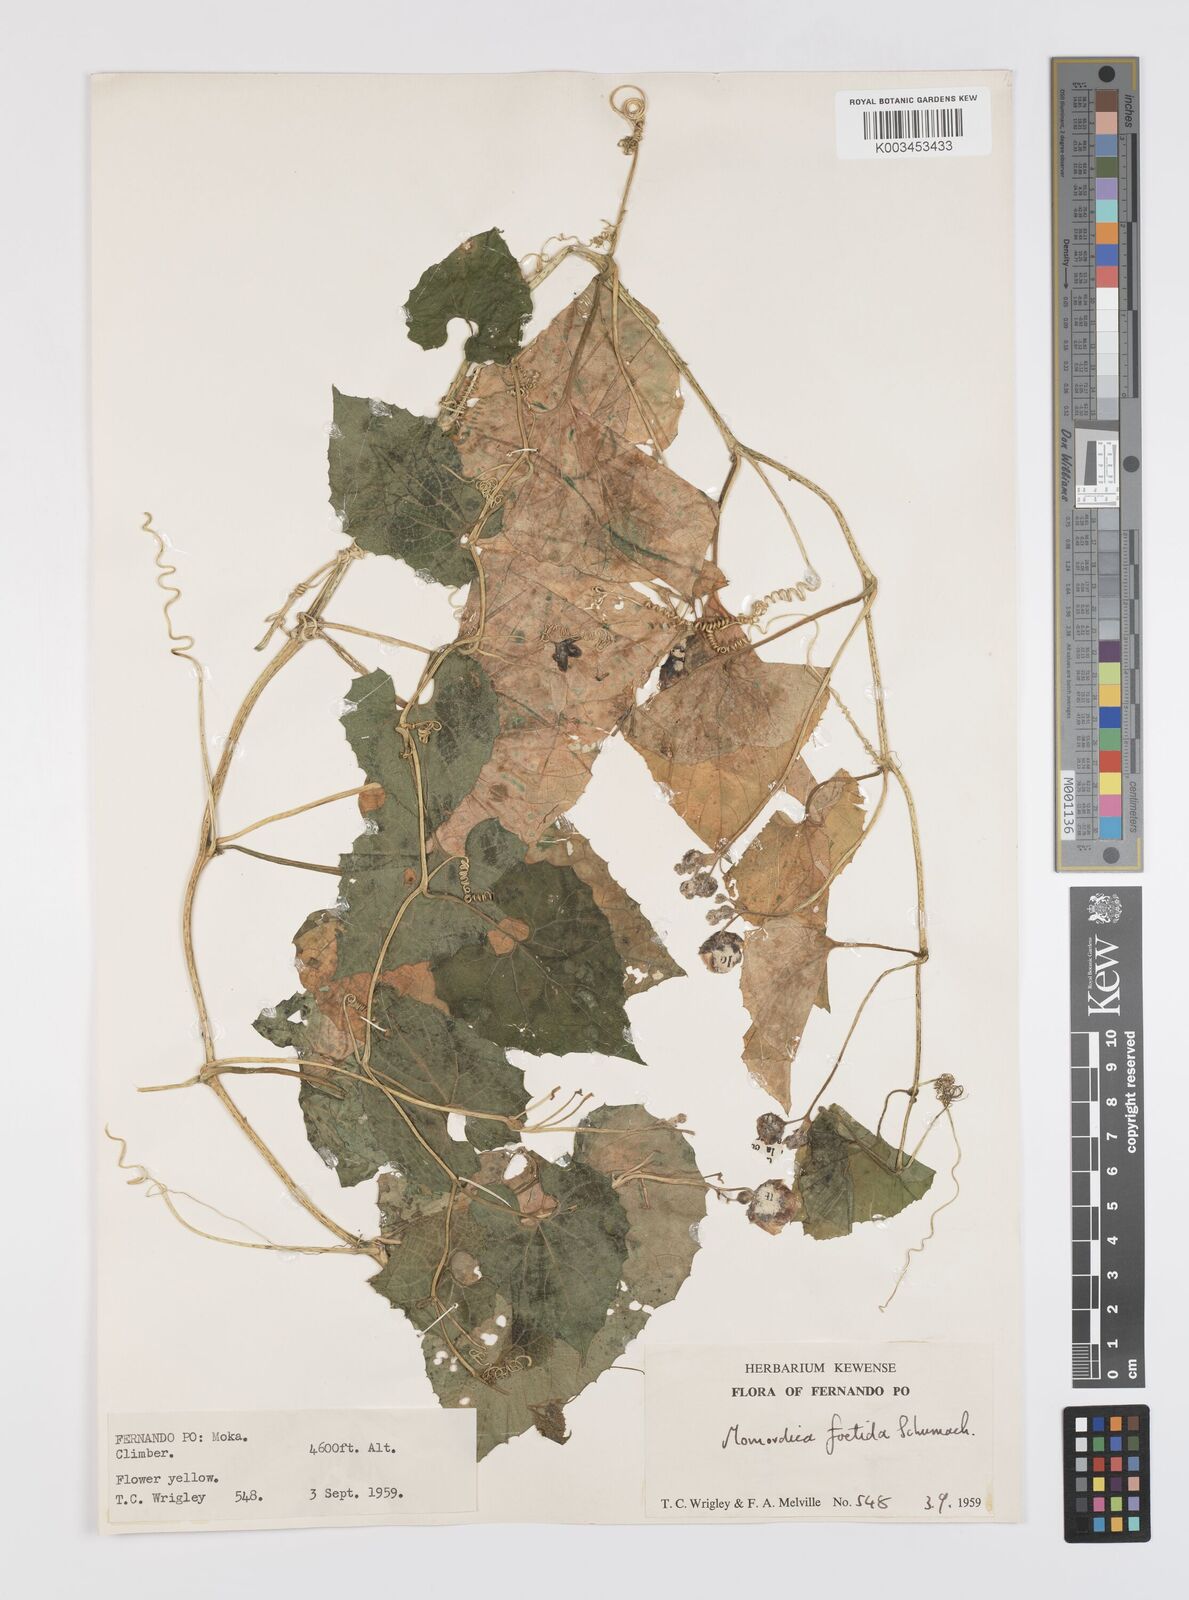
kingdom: Plantae
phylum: Tracheophyta
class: Magnoliopsida
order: Cucurbitales
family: Cucurbitaceae
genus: Momordica
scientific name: Momordica foetida
